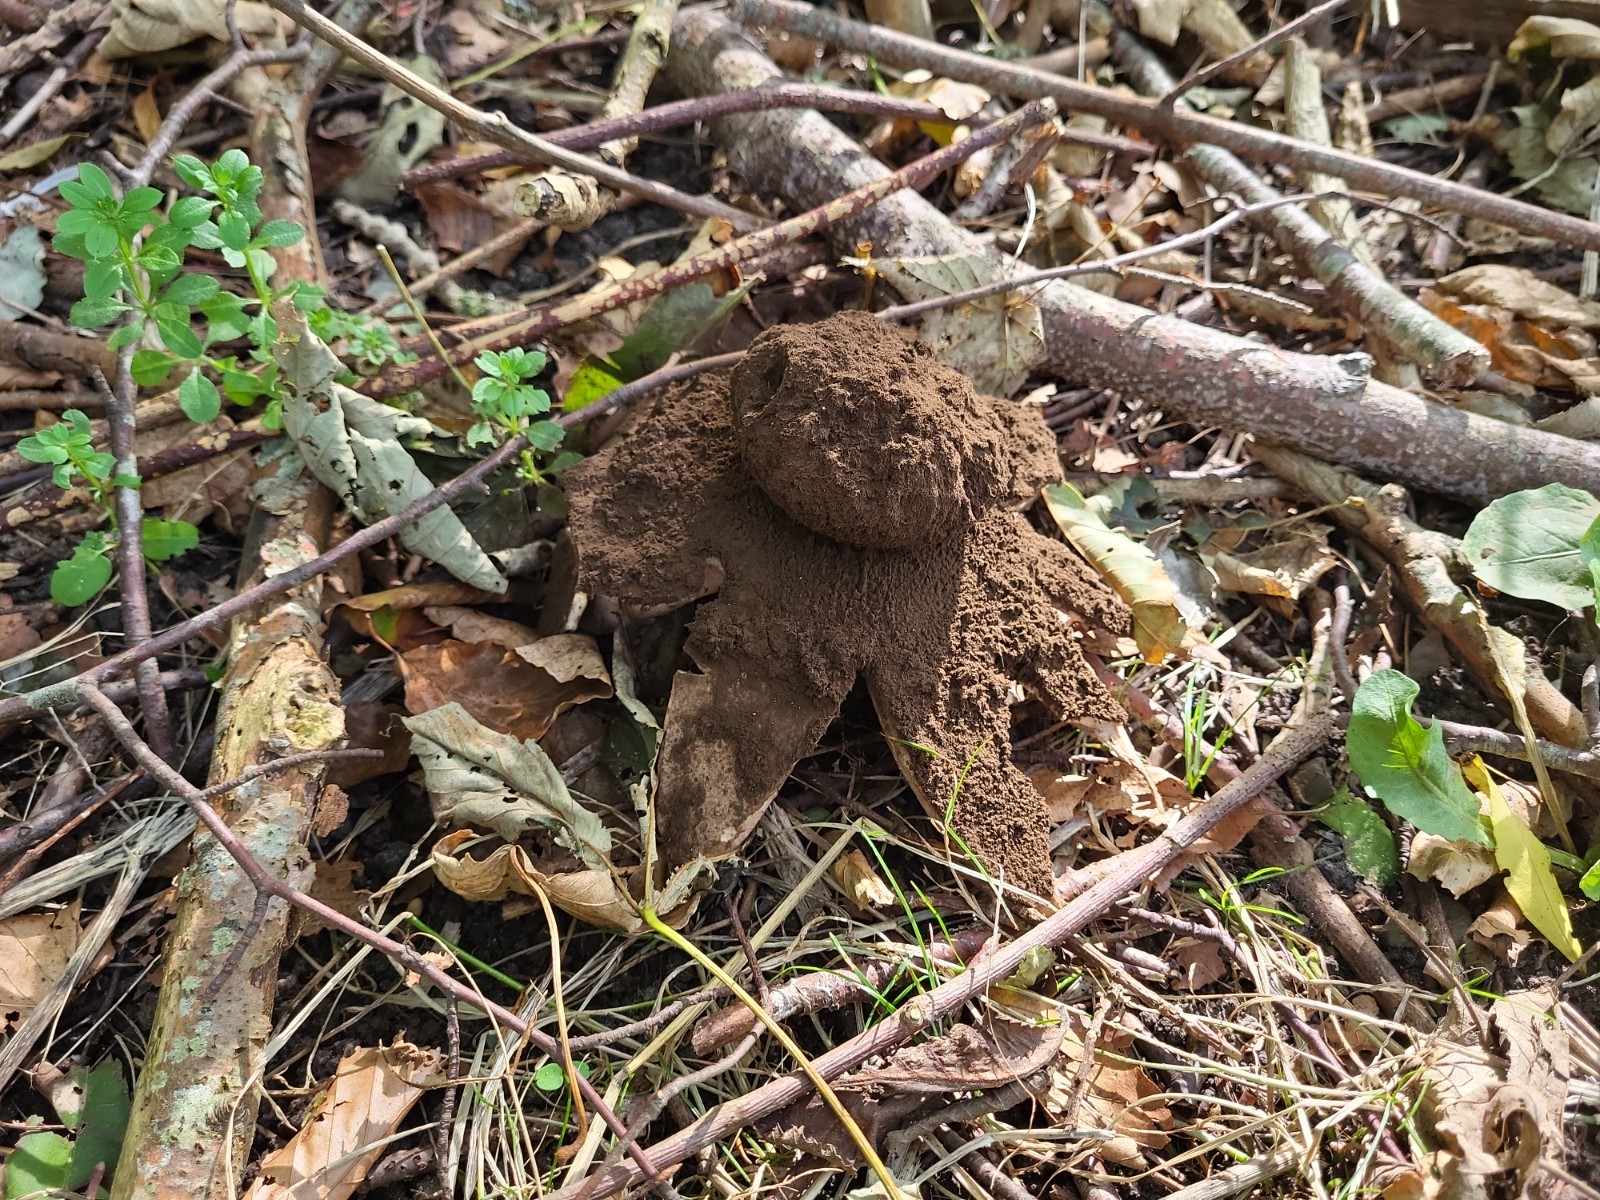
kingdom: Fungi
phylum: Basidiomycota
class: Agaricomycetes
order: Geastrales
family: Geastraceae
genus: Geastrum
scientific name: Geastrum melanocephalum
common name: håret stjernebold
